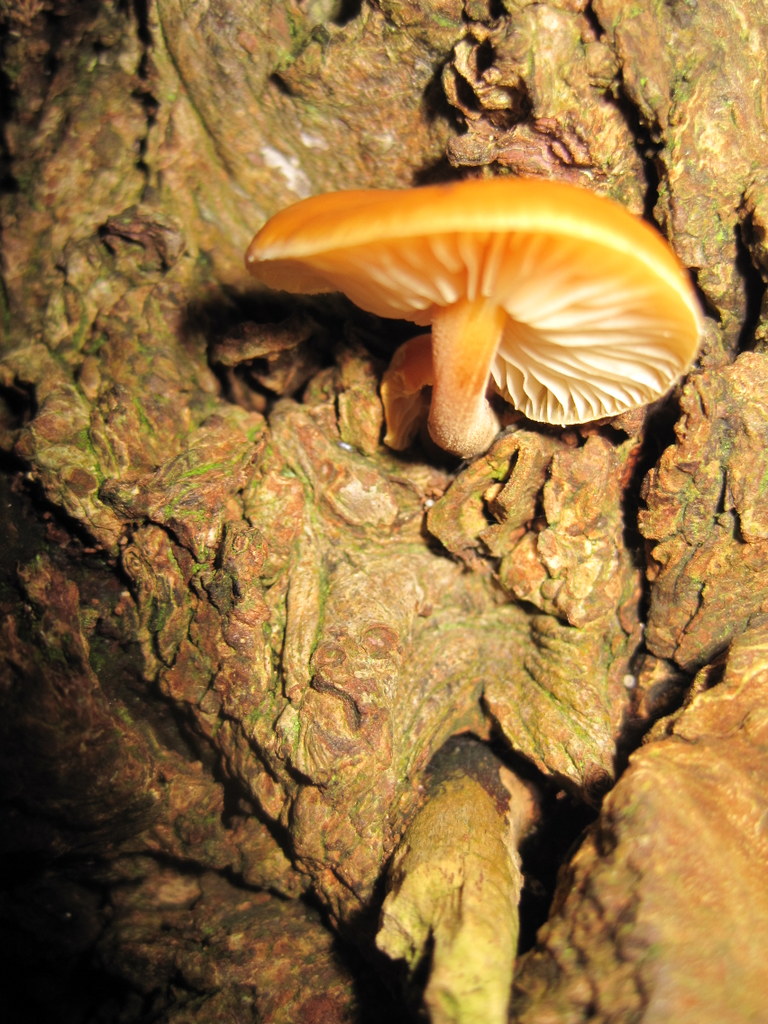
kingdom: Fungi
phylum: Basidiomycota
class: Agaricomycetes
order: Agaricales
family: Physalacriaceae
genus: Flammulina
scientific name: Flammulina populicola
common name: poppel-fløjlsfod
